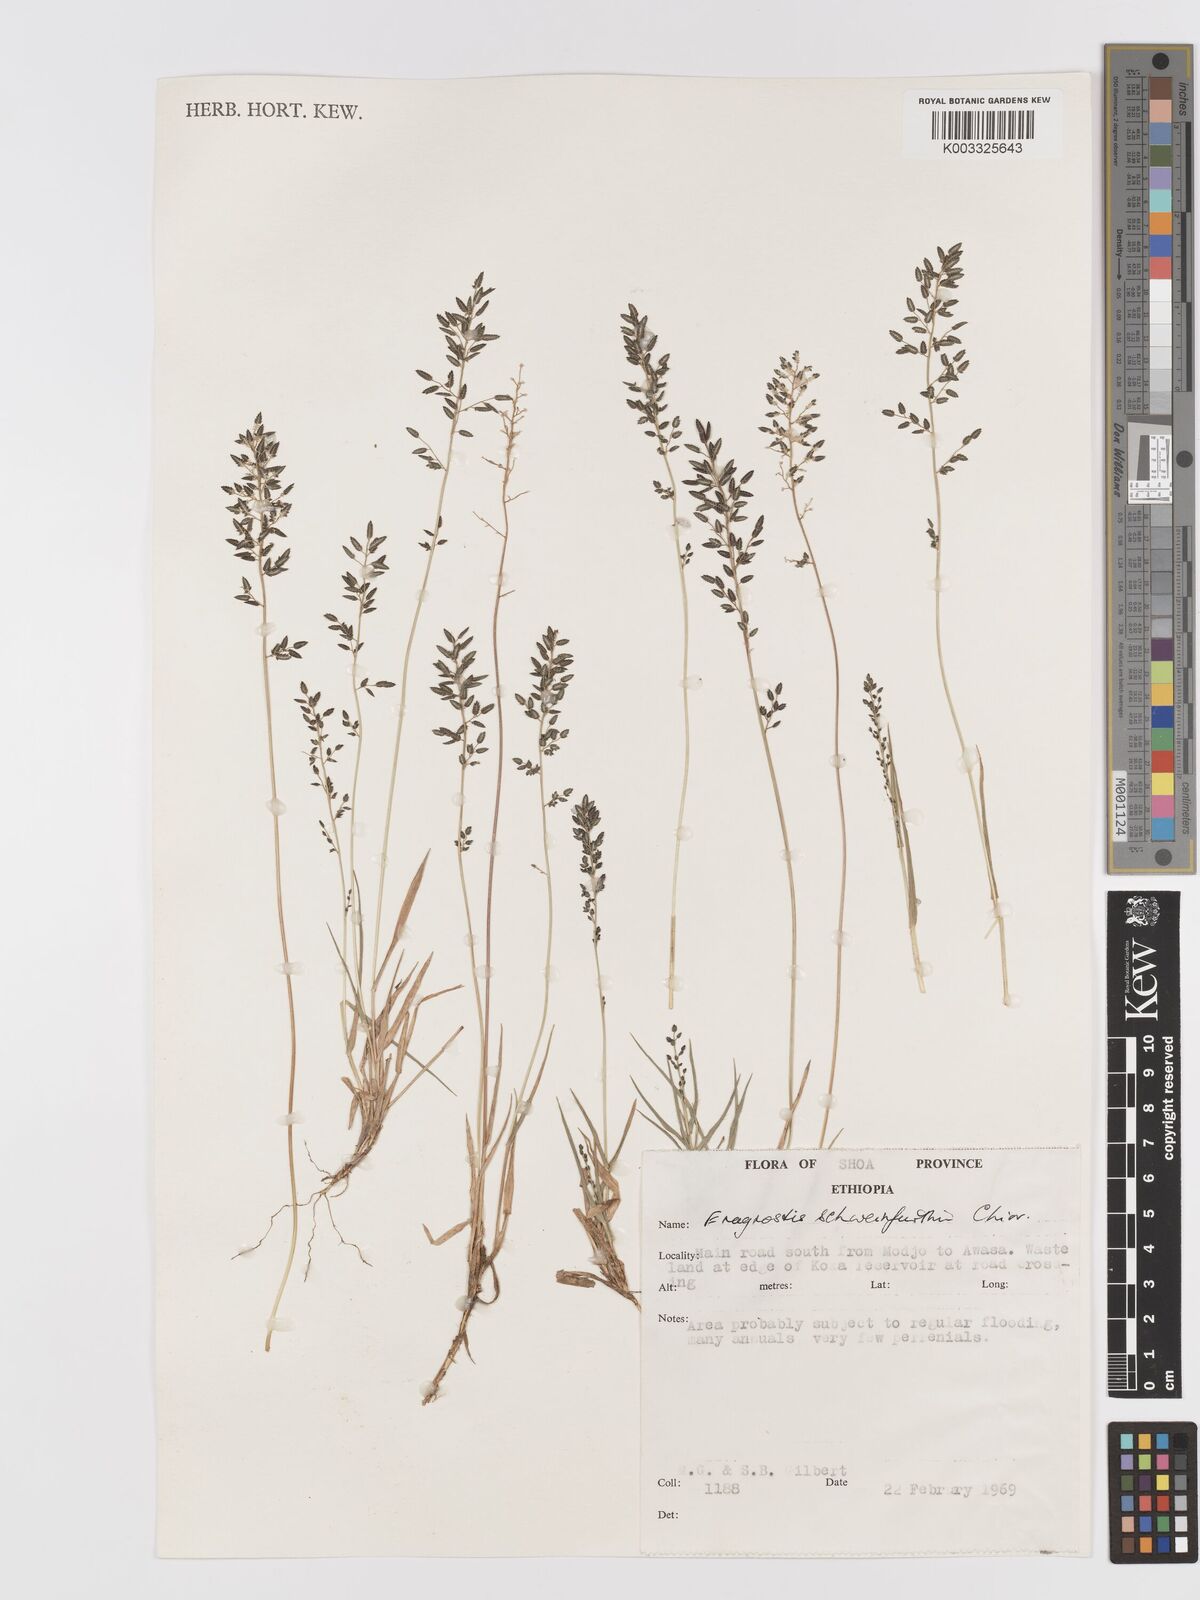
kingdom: Plantae
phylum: Tracheophyta
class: Liliopsida
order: Poales
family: Poaceae
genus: Eragrostis
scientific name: Eragrostis schweinfurthii
